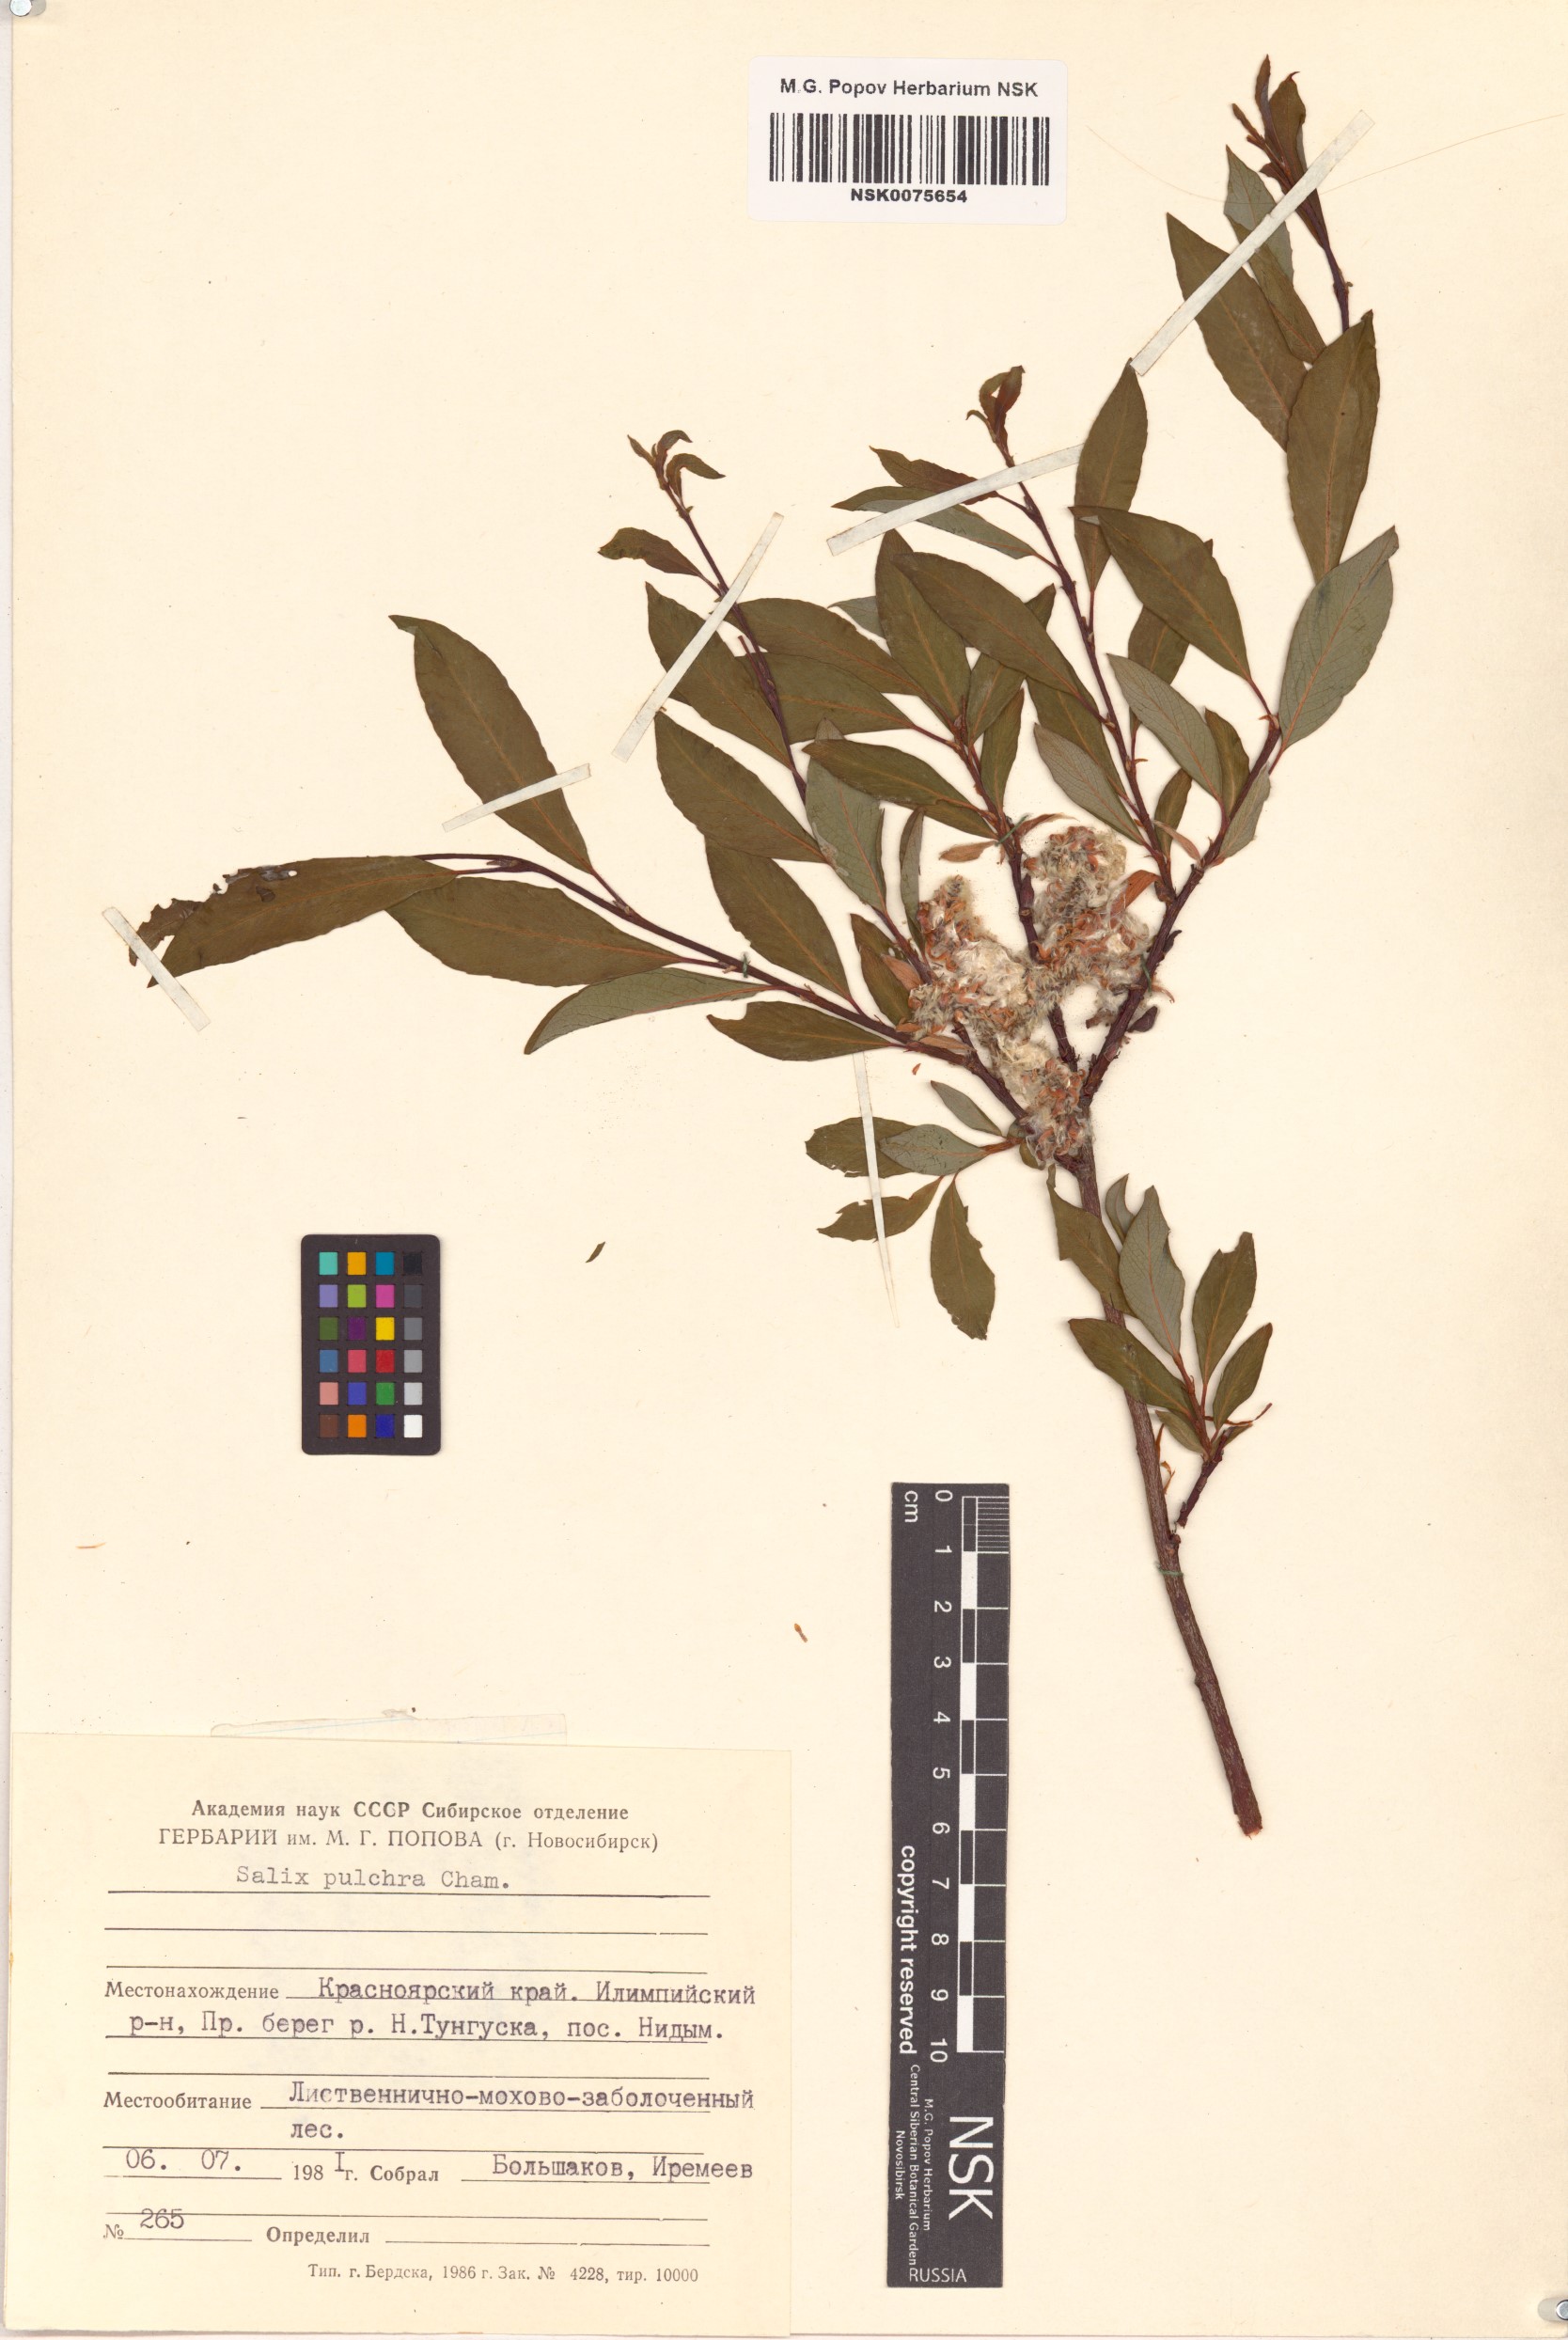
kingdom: Plantae
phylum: Tracheophyta
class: Magnoliopsida
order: Malpighiales
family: Salicaceae
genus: Salix
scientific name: Salix pulchra
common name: Diamond-leaved willow
